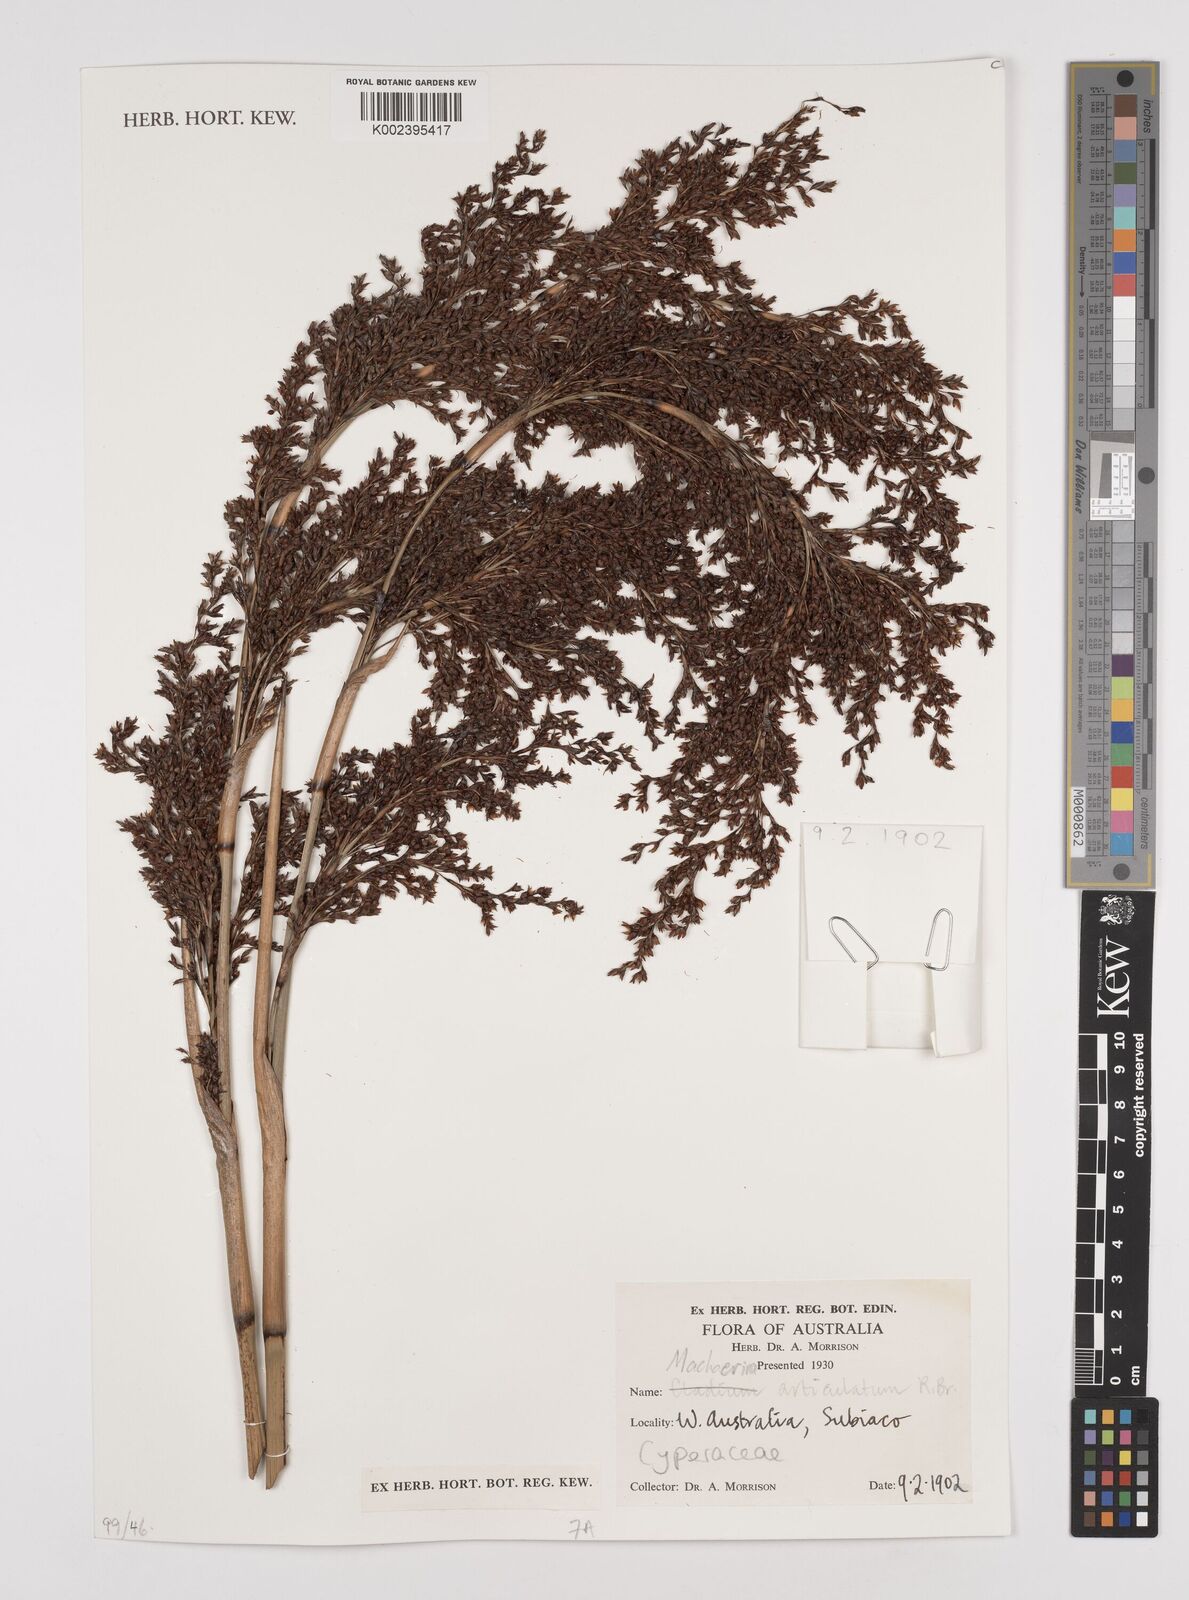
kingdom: Plantae
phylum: Tracheophyta
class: Liliopsida
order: Poales
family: Cyperaceae
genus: Machaerina
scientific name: Machaerina articulata
